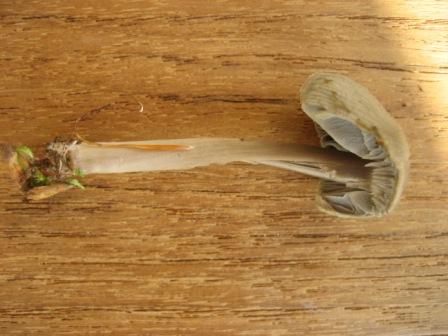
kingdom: Fungi
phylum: Basidiomycota
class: Agaricomycetes
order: Agaricales
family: Mycenaceae
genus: Mycena
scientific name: Mycena galericulata
